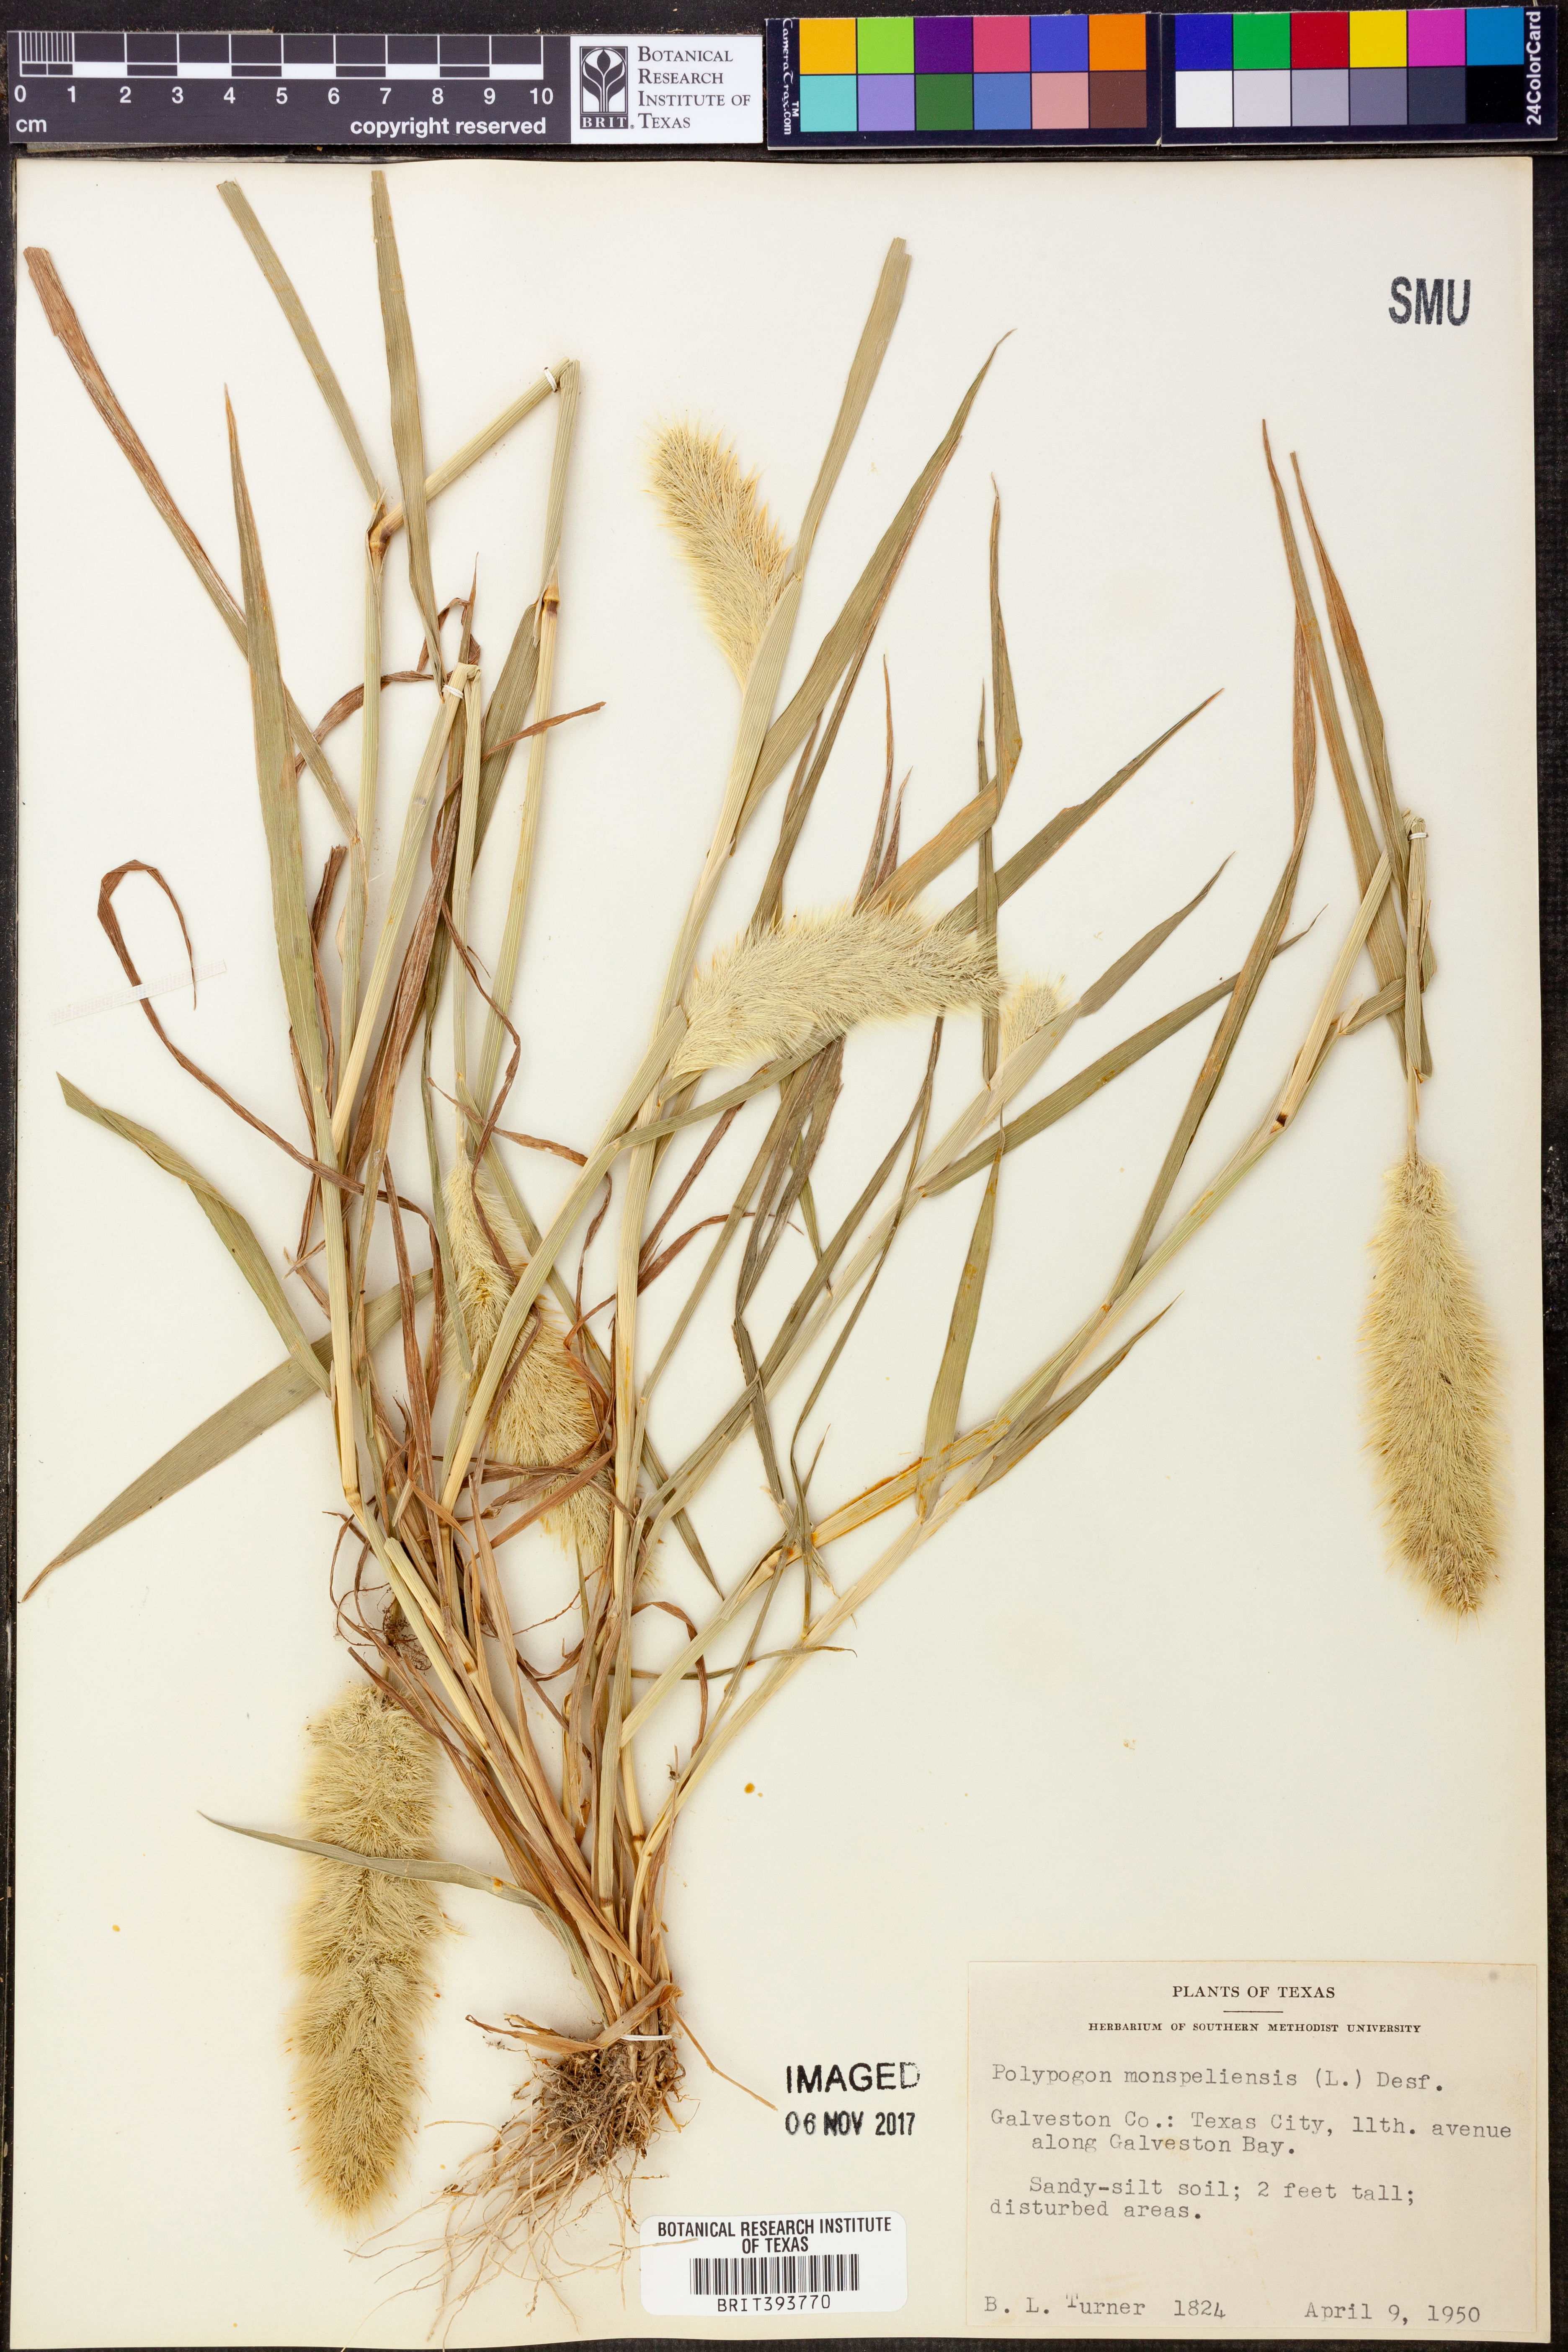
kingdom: Plantae
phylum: Tracheophyta
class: Liliopsida
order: Poales
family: Poaceae
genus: Polypogon
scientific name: Polypogon monspeliensis
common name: Annual rabbitsfoot grass
